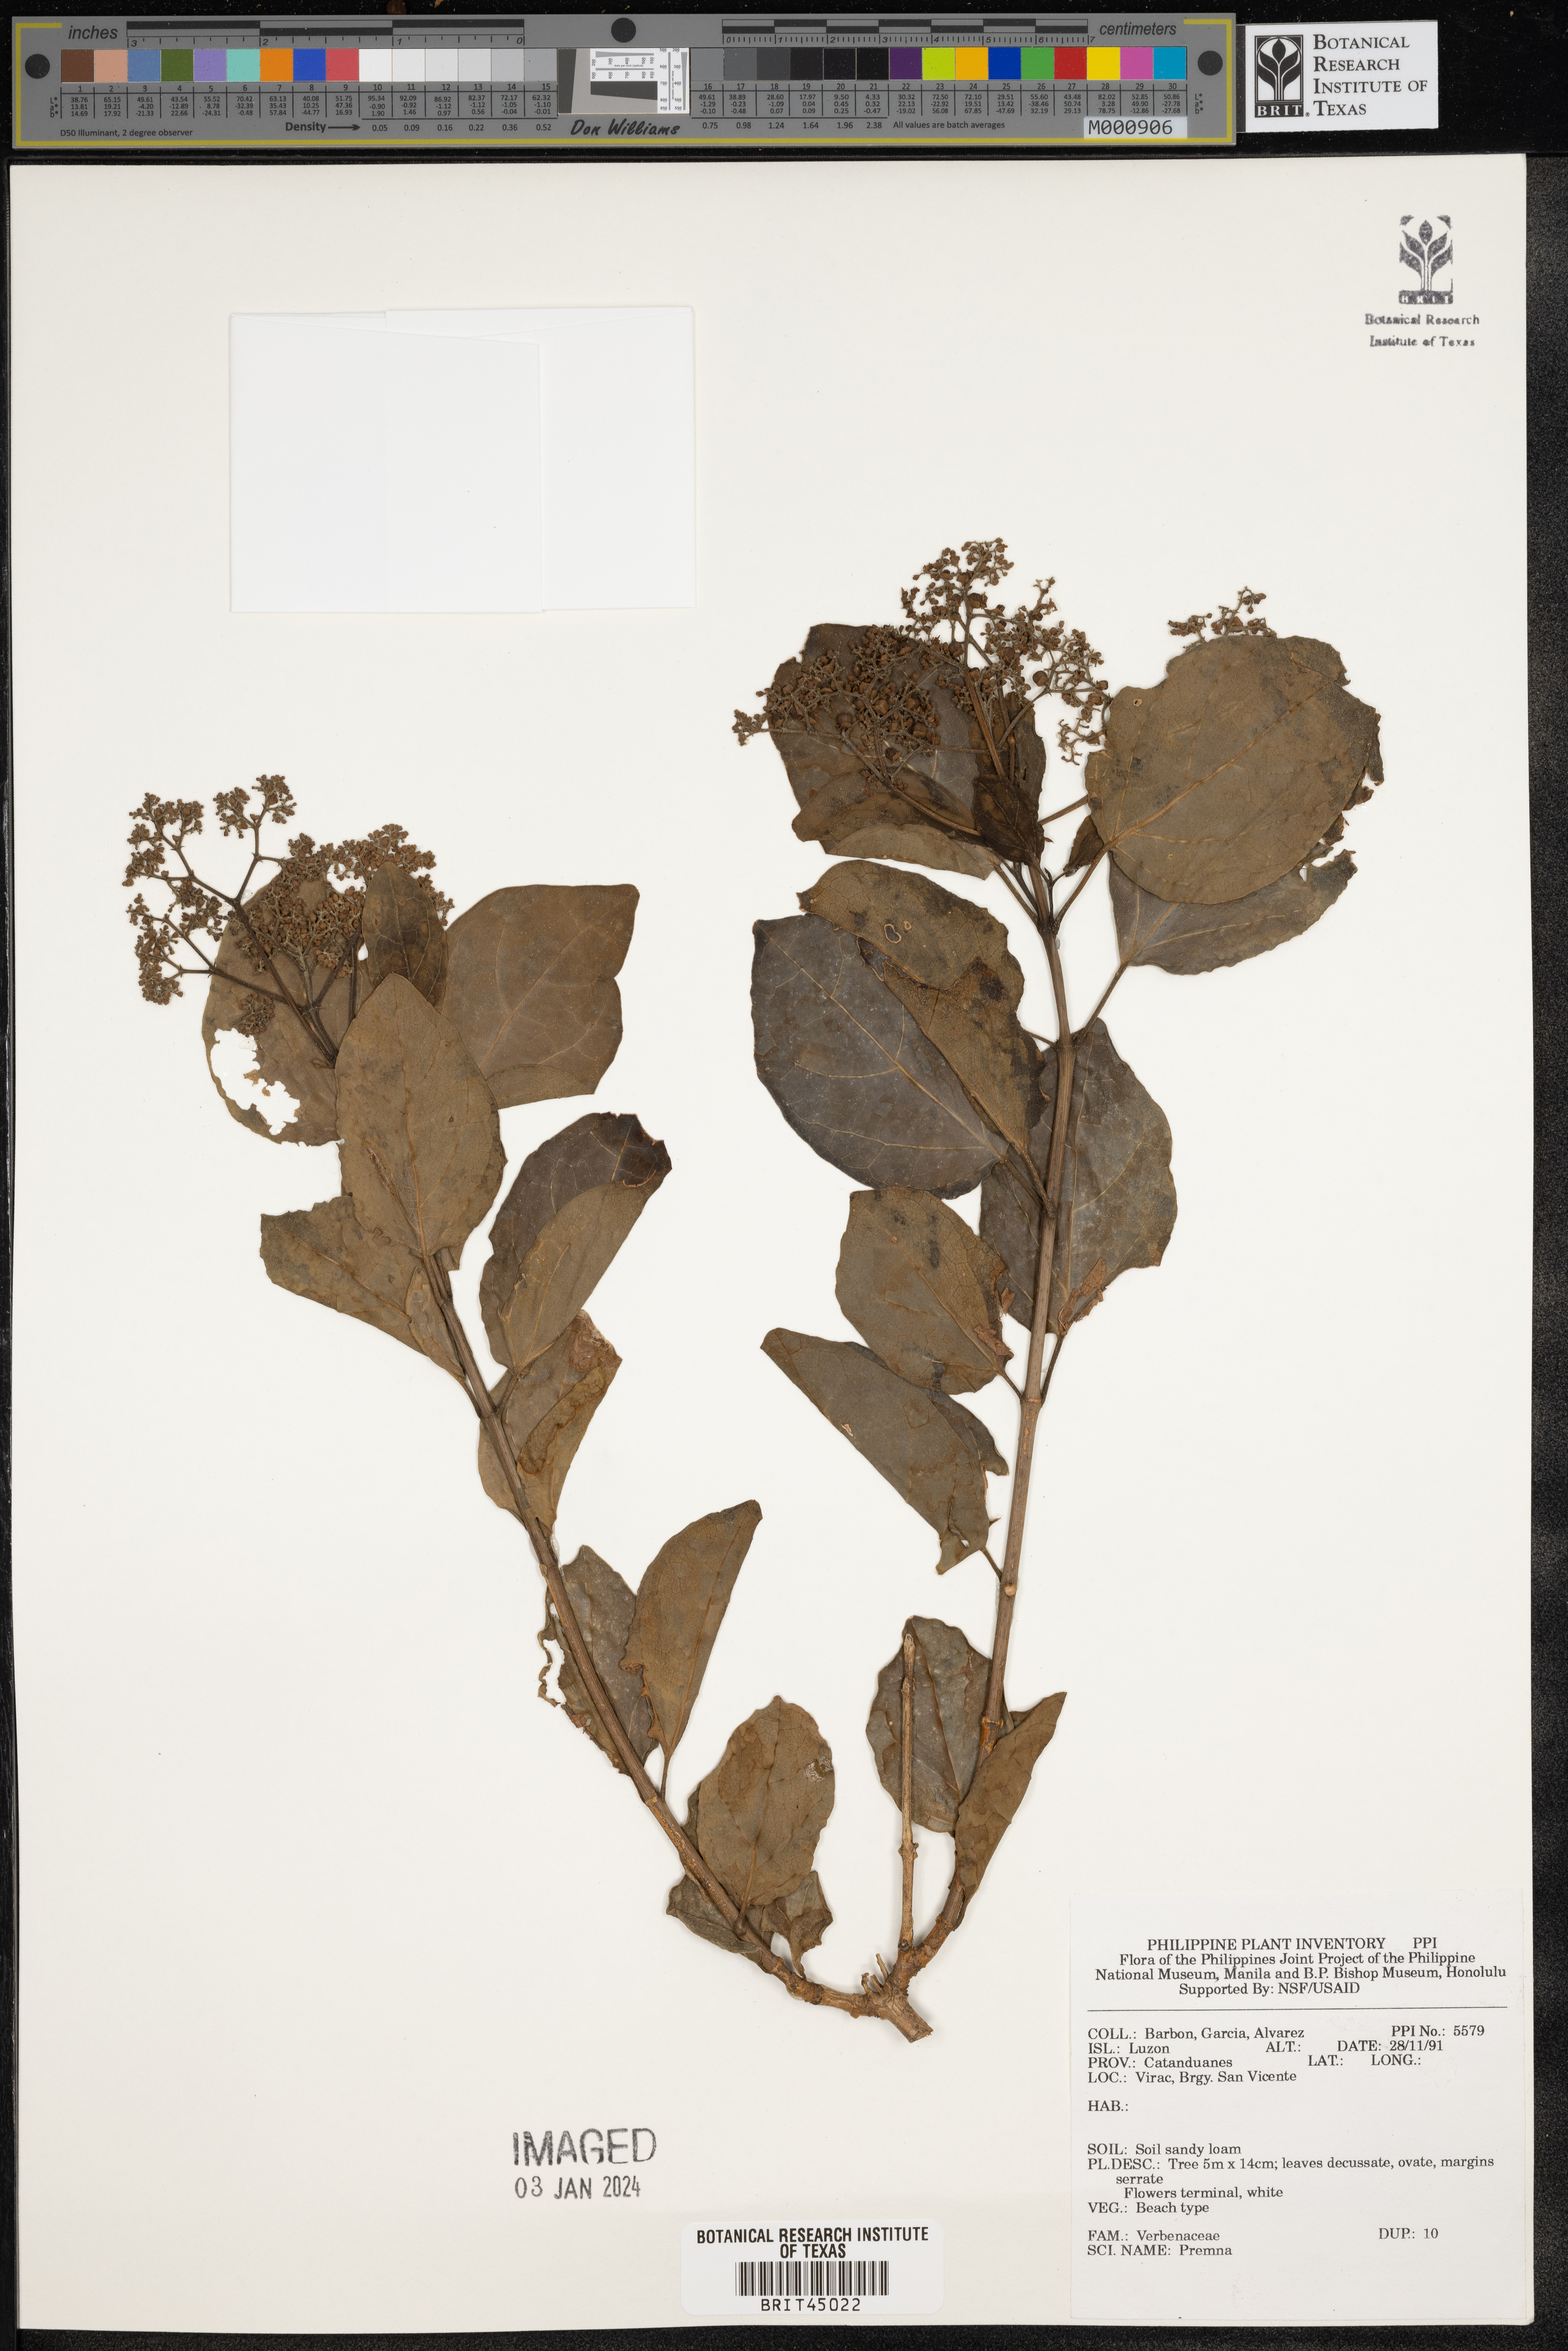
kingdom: Plantae
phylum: Tracheophyta
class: Magnoliopsida
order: Lamiales
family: Lamiaceae
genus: Premna
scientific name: Premna
